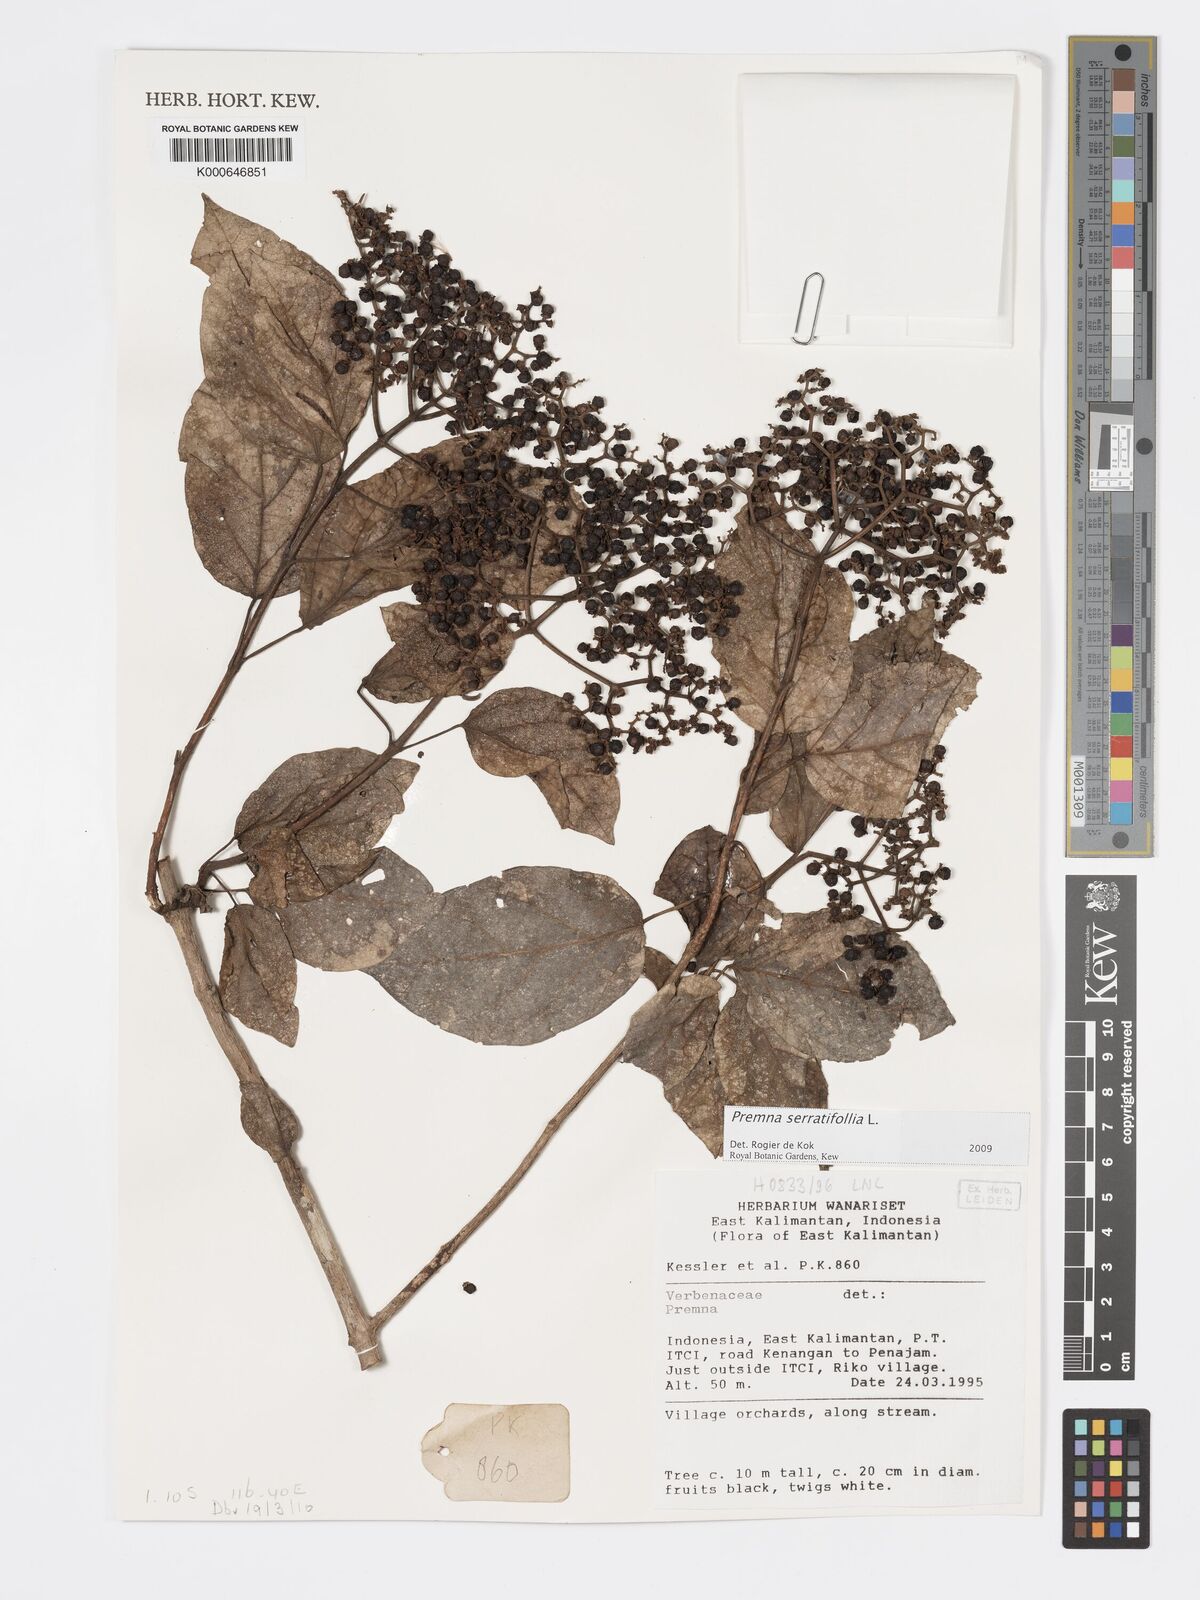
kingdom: Plantae
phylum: Tracheophyta
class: Magnoliopsida
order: Lamiales
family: Lamiaceae
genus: Premna
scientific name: Premna serratifolia
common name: Bastard guelder
